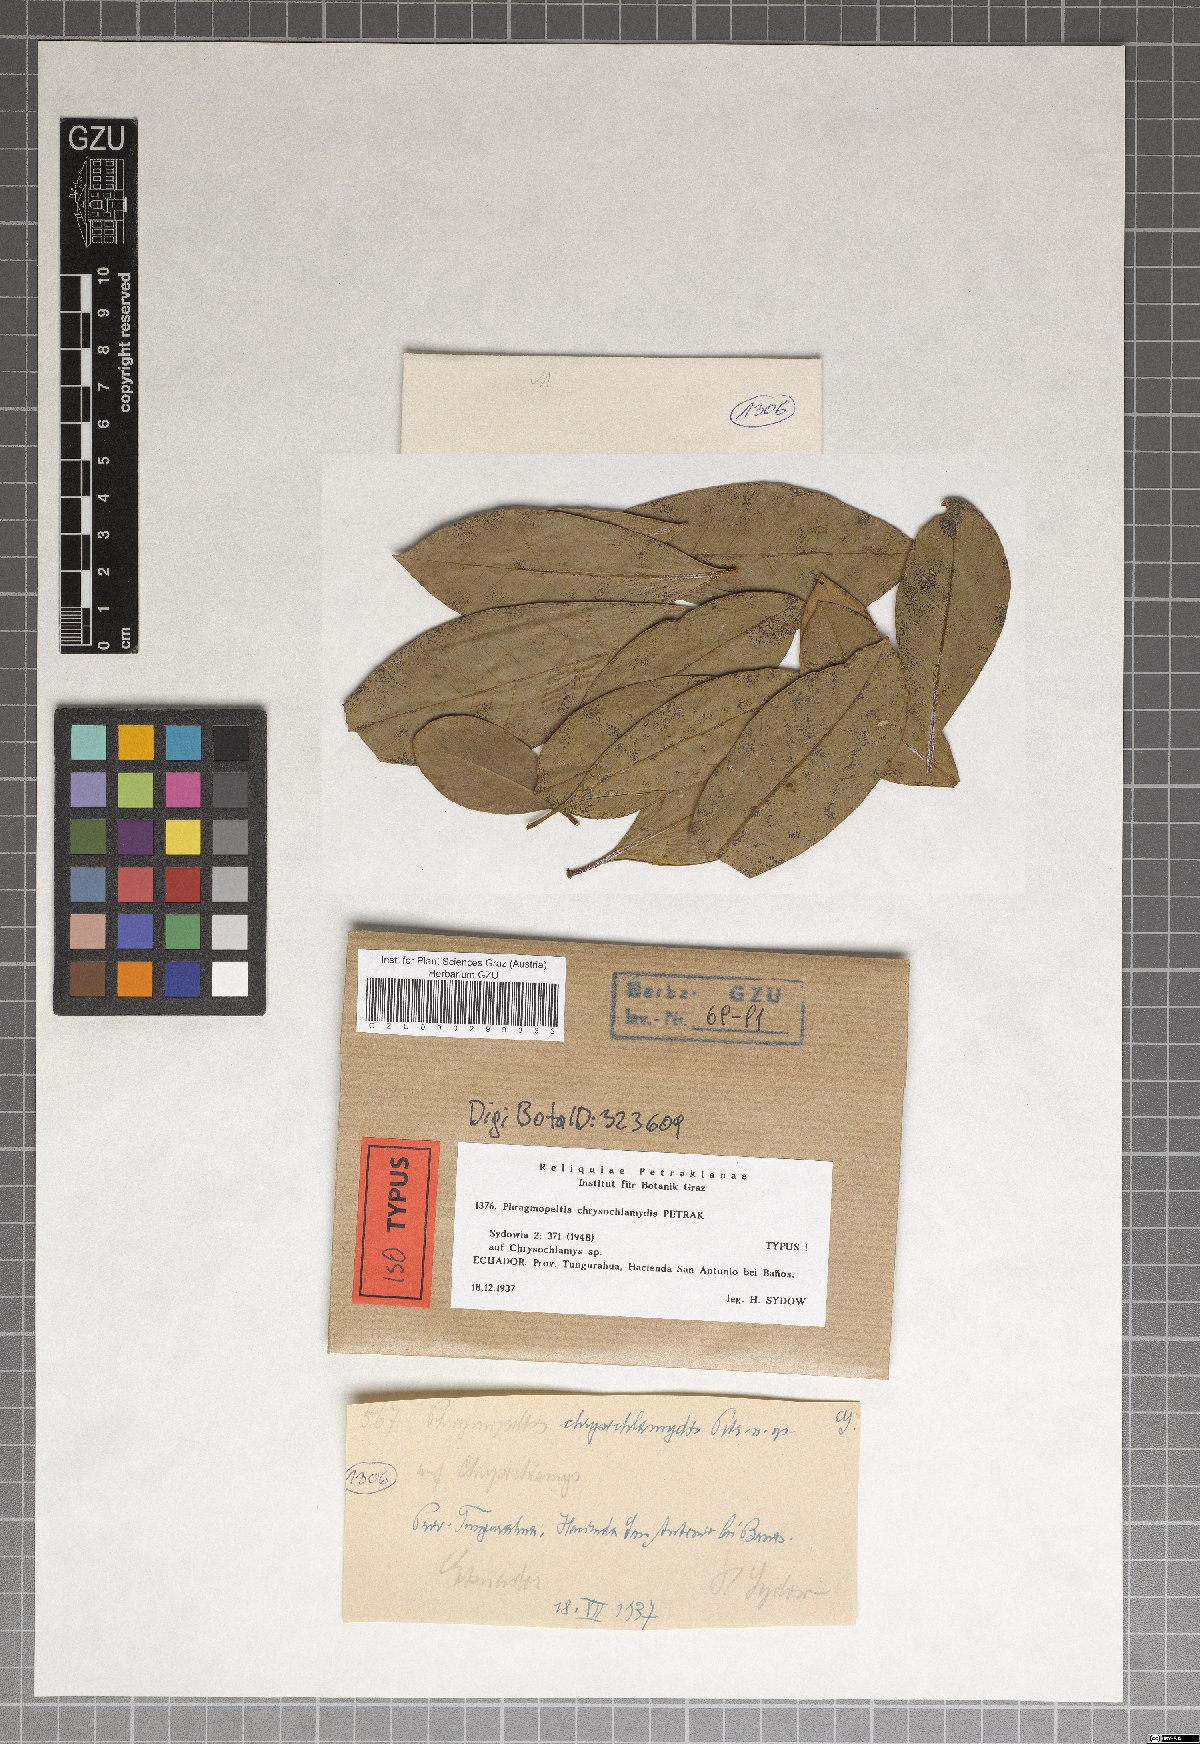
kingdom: Fungi
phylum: Ascomycota
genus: Phragmopeltis
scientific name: Phragmopeltis chrysochlamydis
